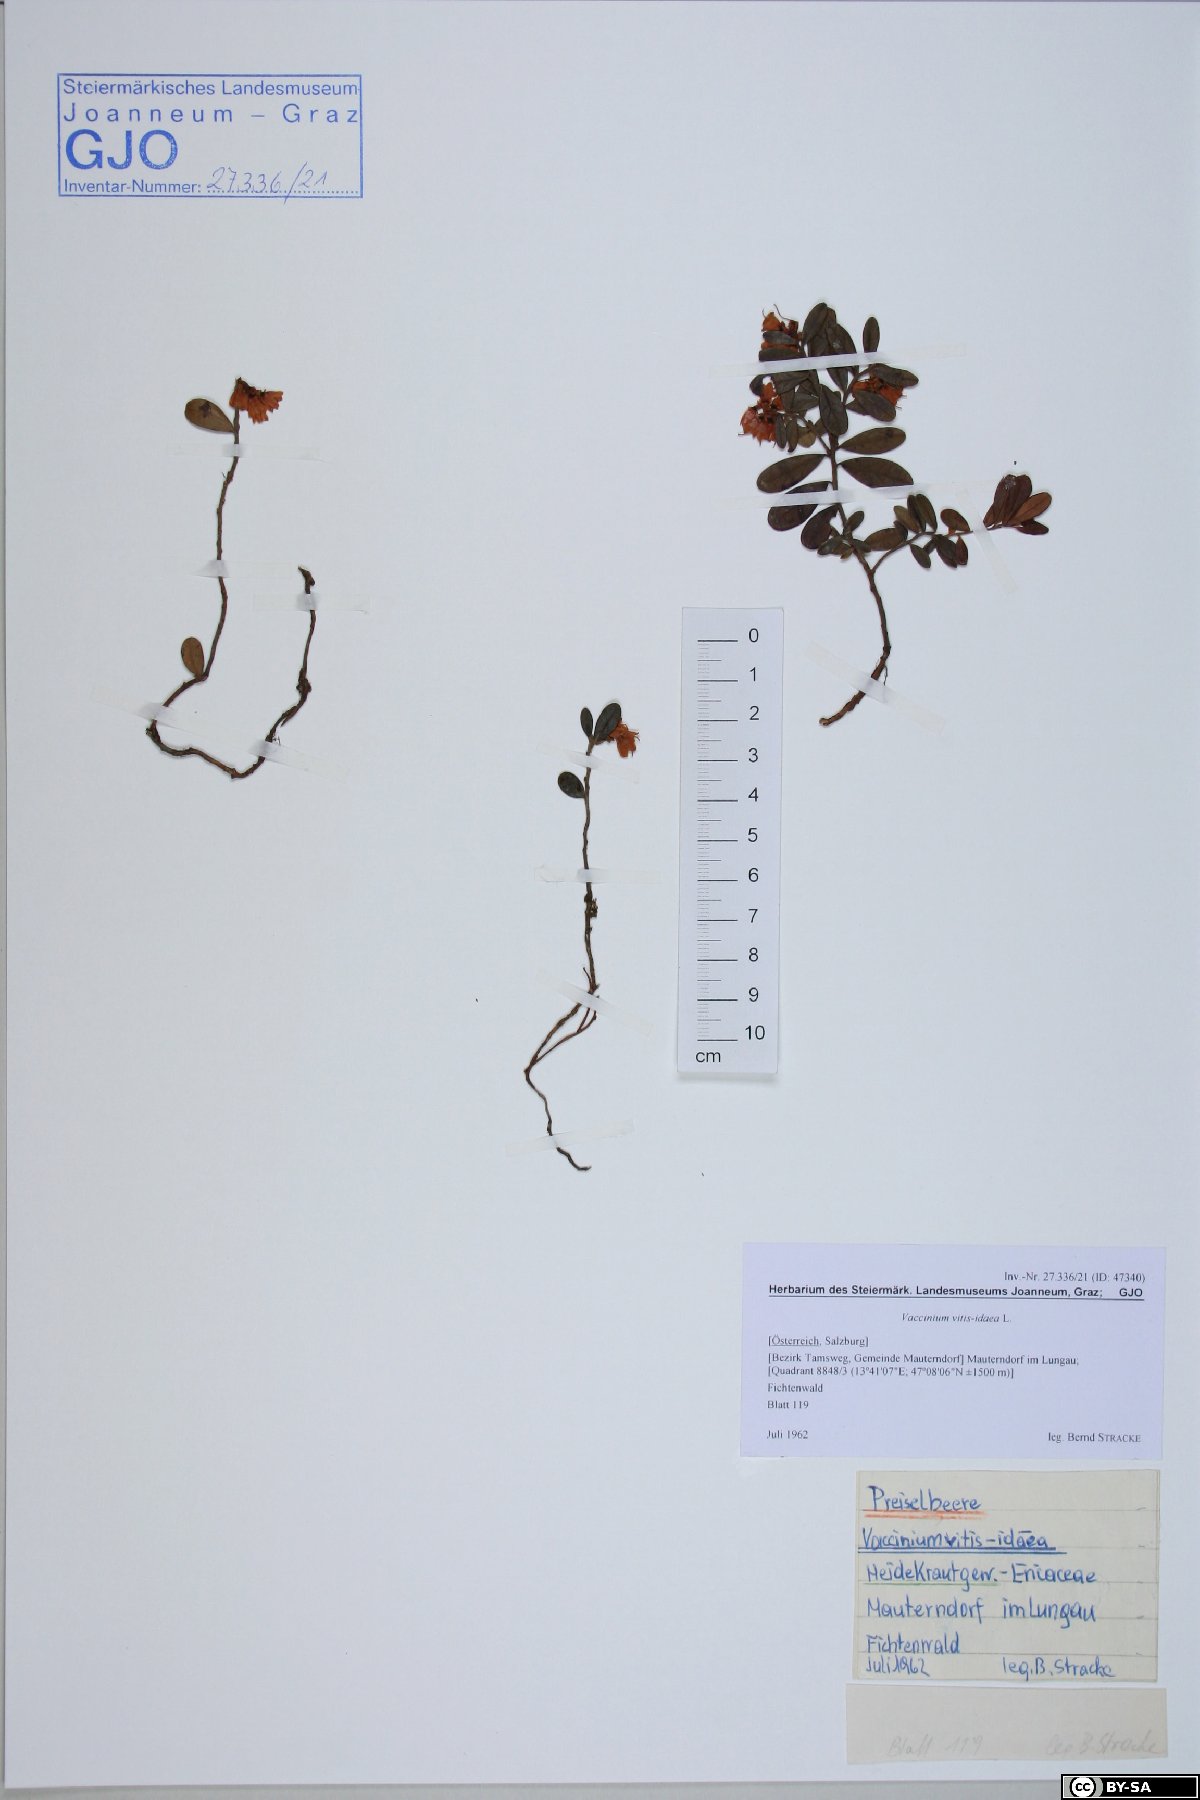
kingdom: Plantae
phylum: Tracheophyta
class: Magnoliopsida
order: Ericales
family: Ericaceae
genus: Vaccinium
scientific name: Vaccinium vitis-idaea
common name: Cowberry
